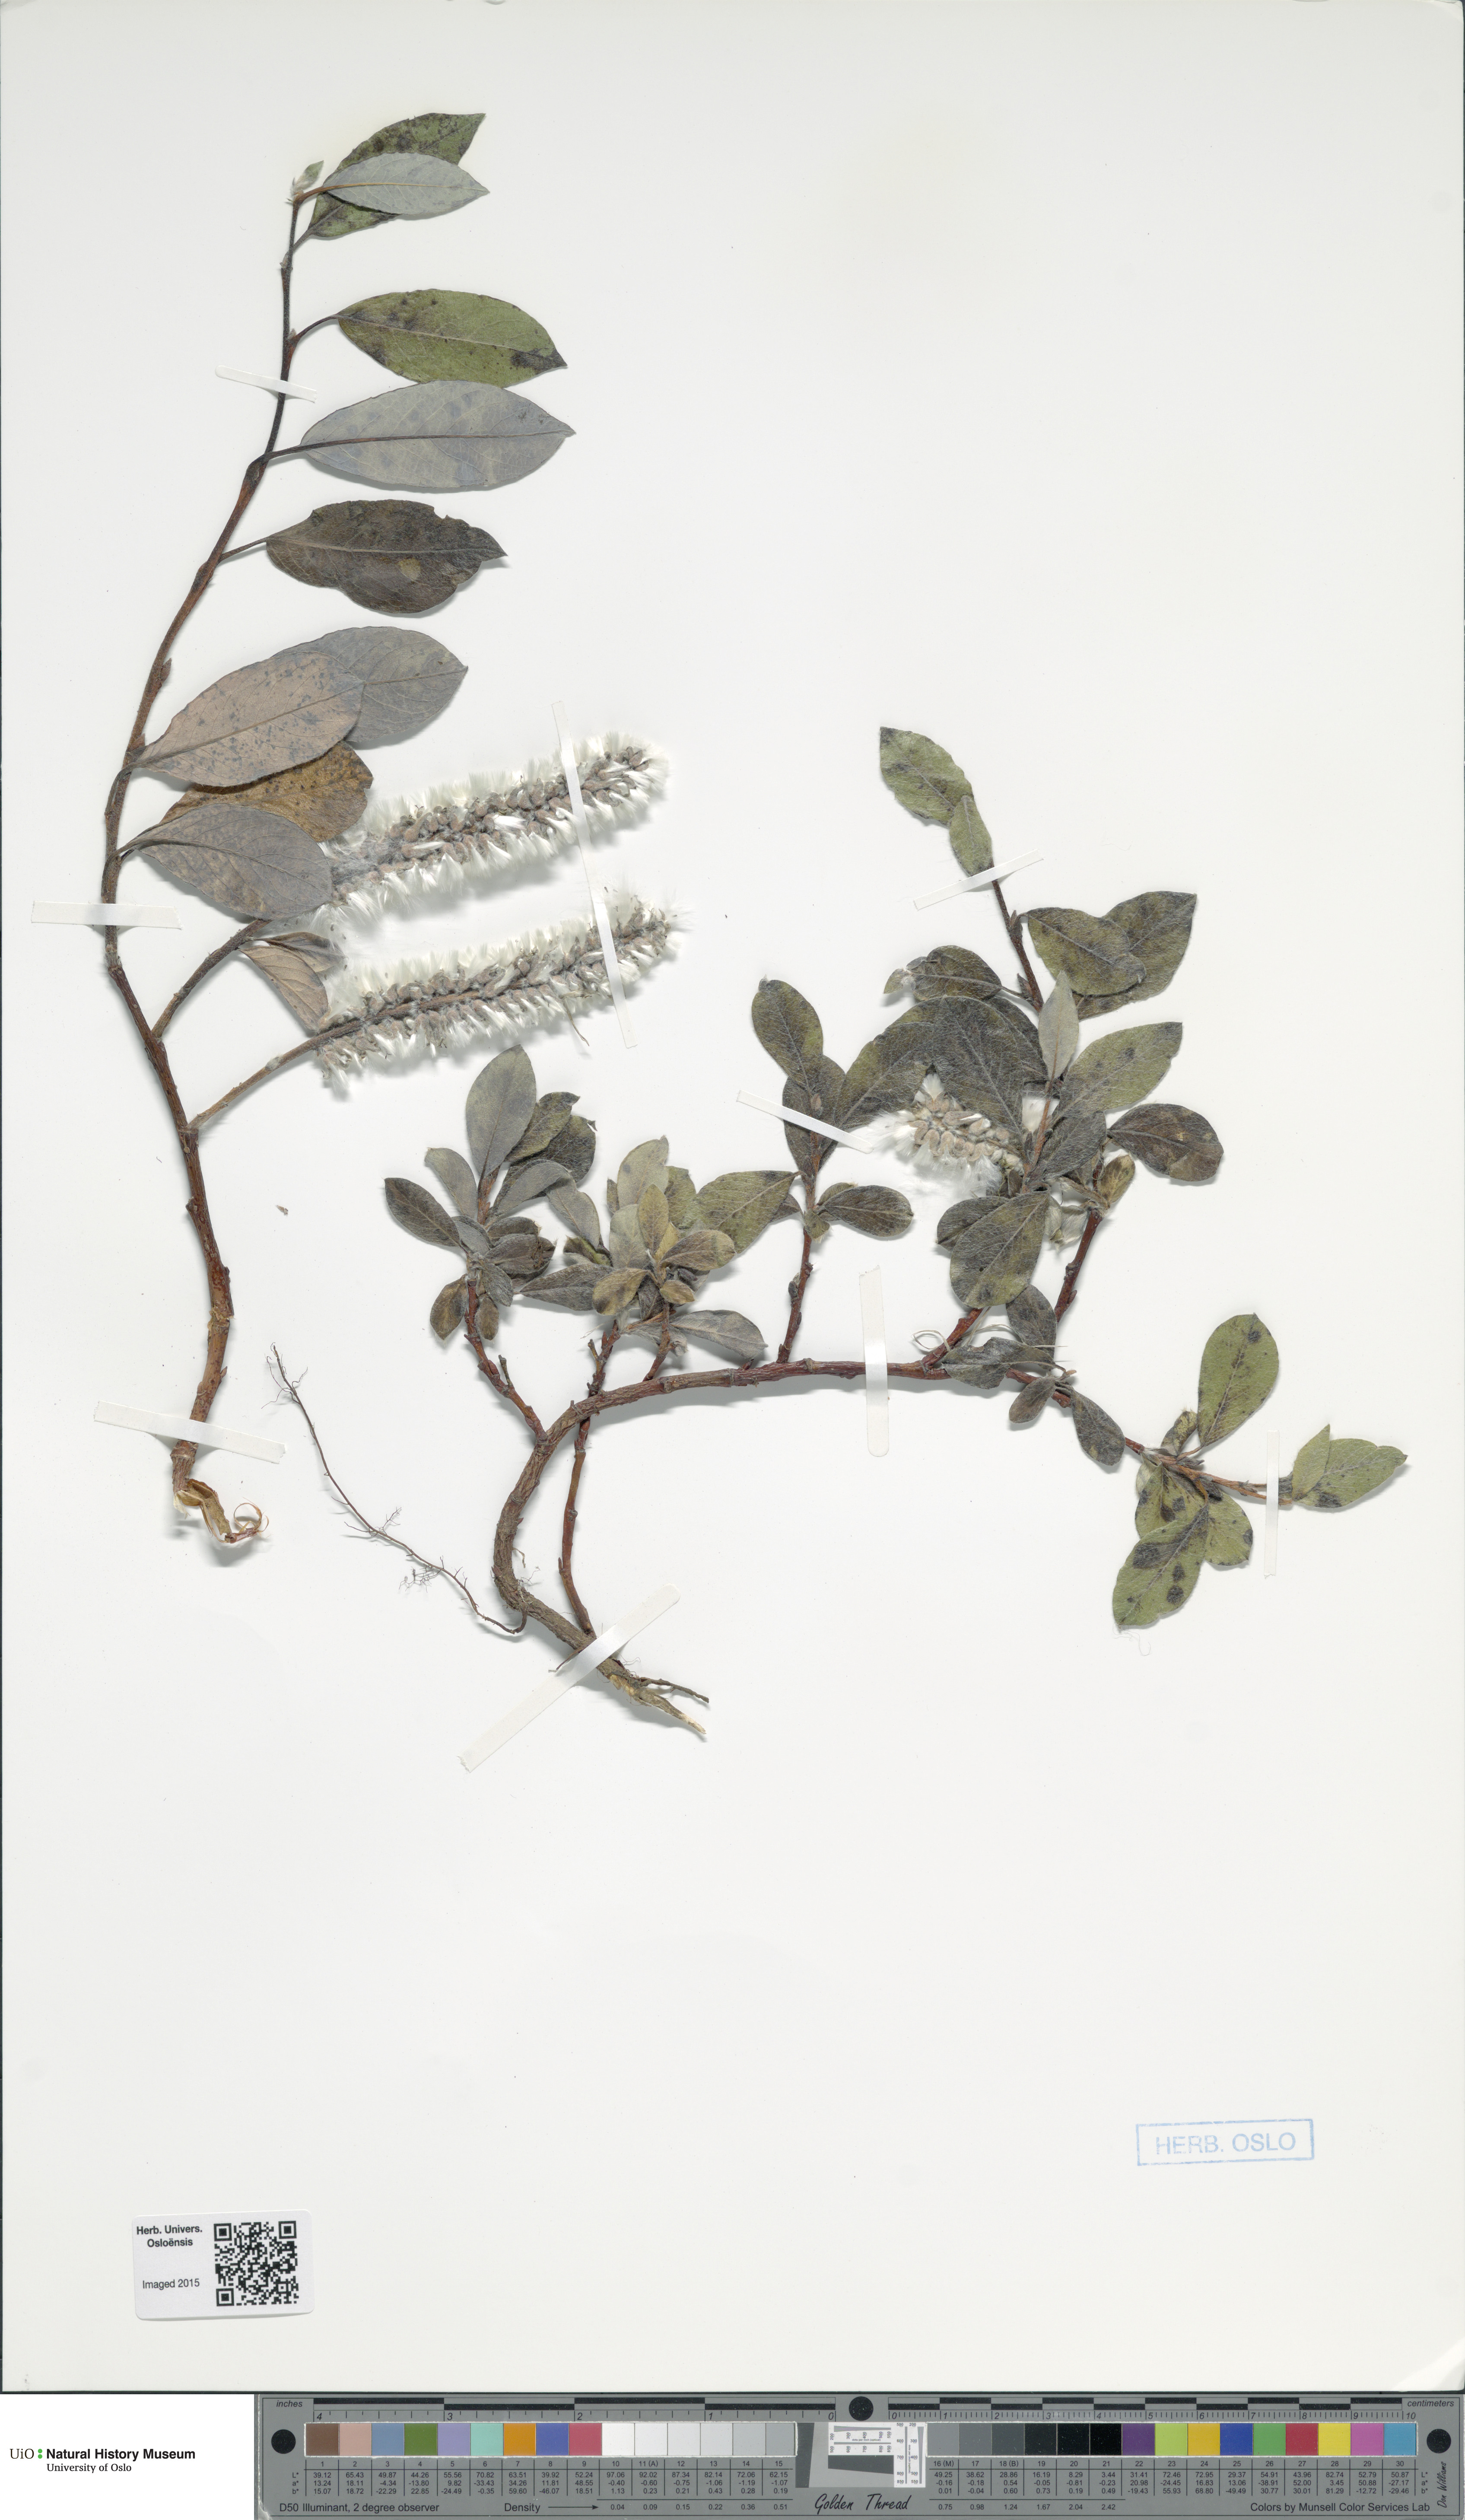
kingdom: Plantae
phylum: Tracheophyta
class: Magnoliopsida
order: Malpighiales
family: Salicaceae
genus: Salix
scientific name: Salix arctica
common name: Arctic willow
